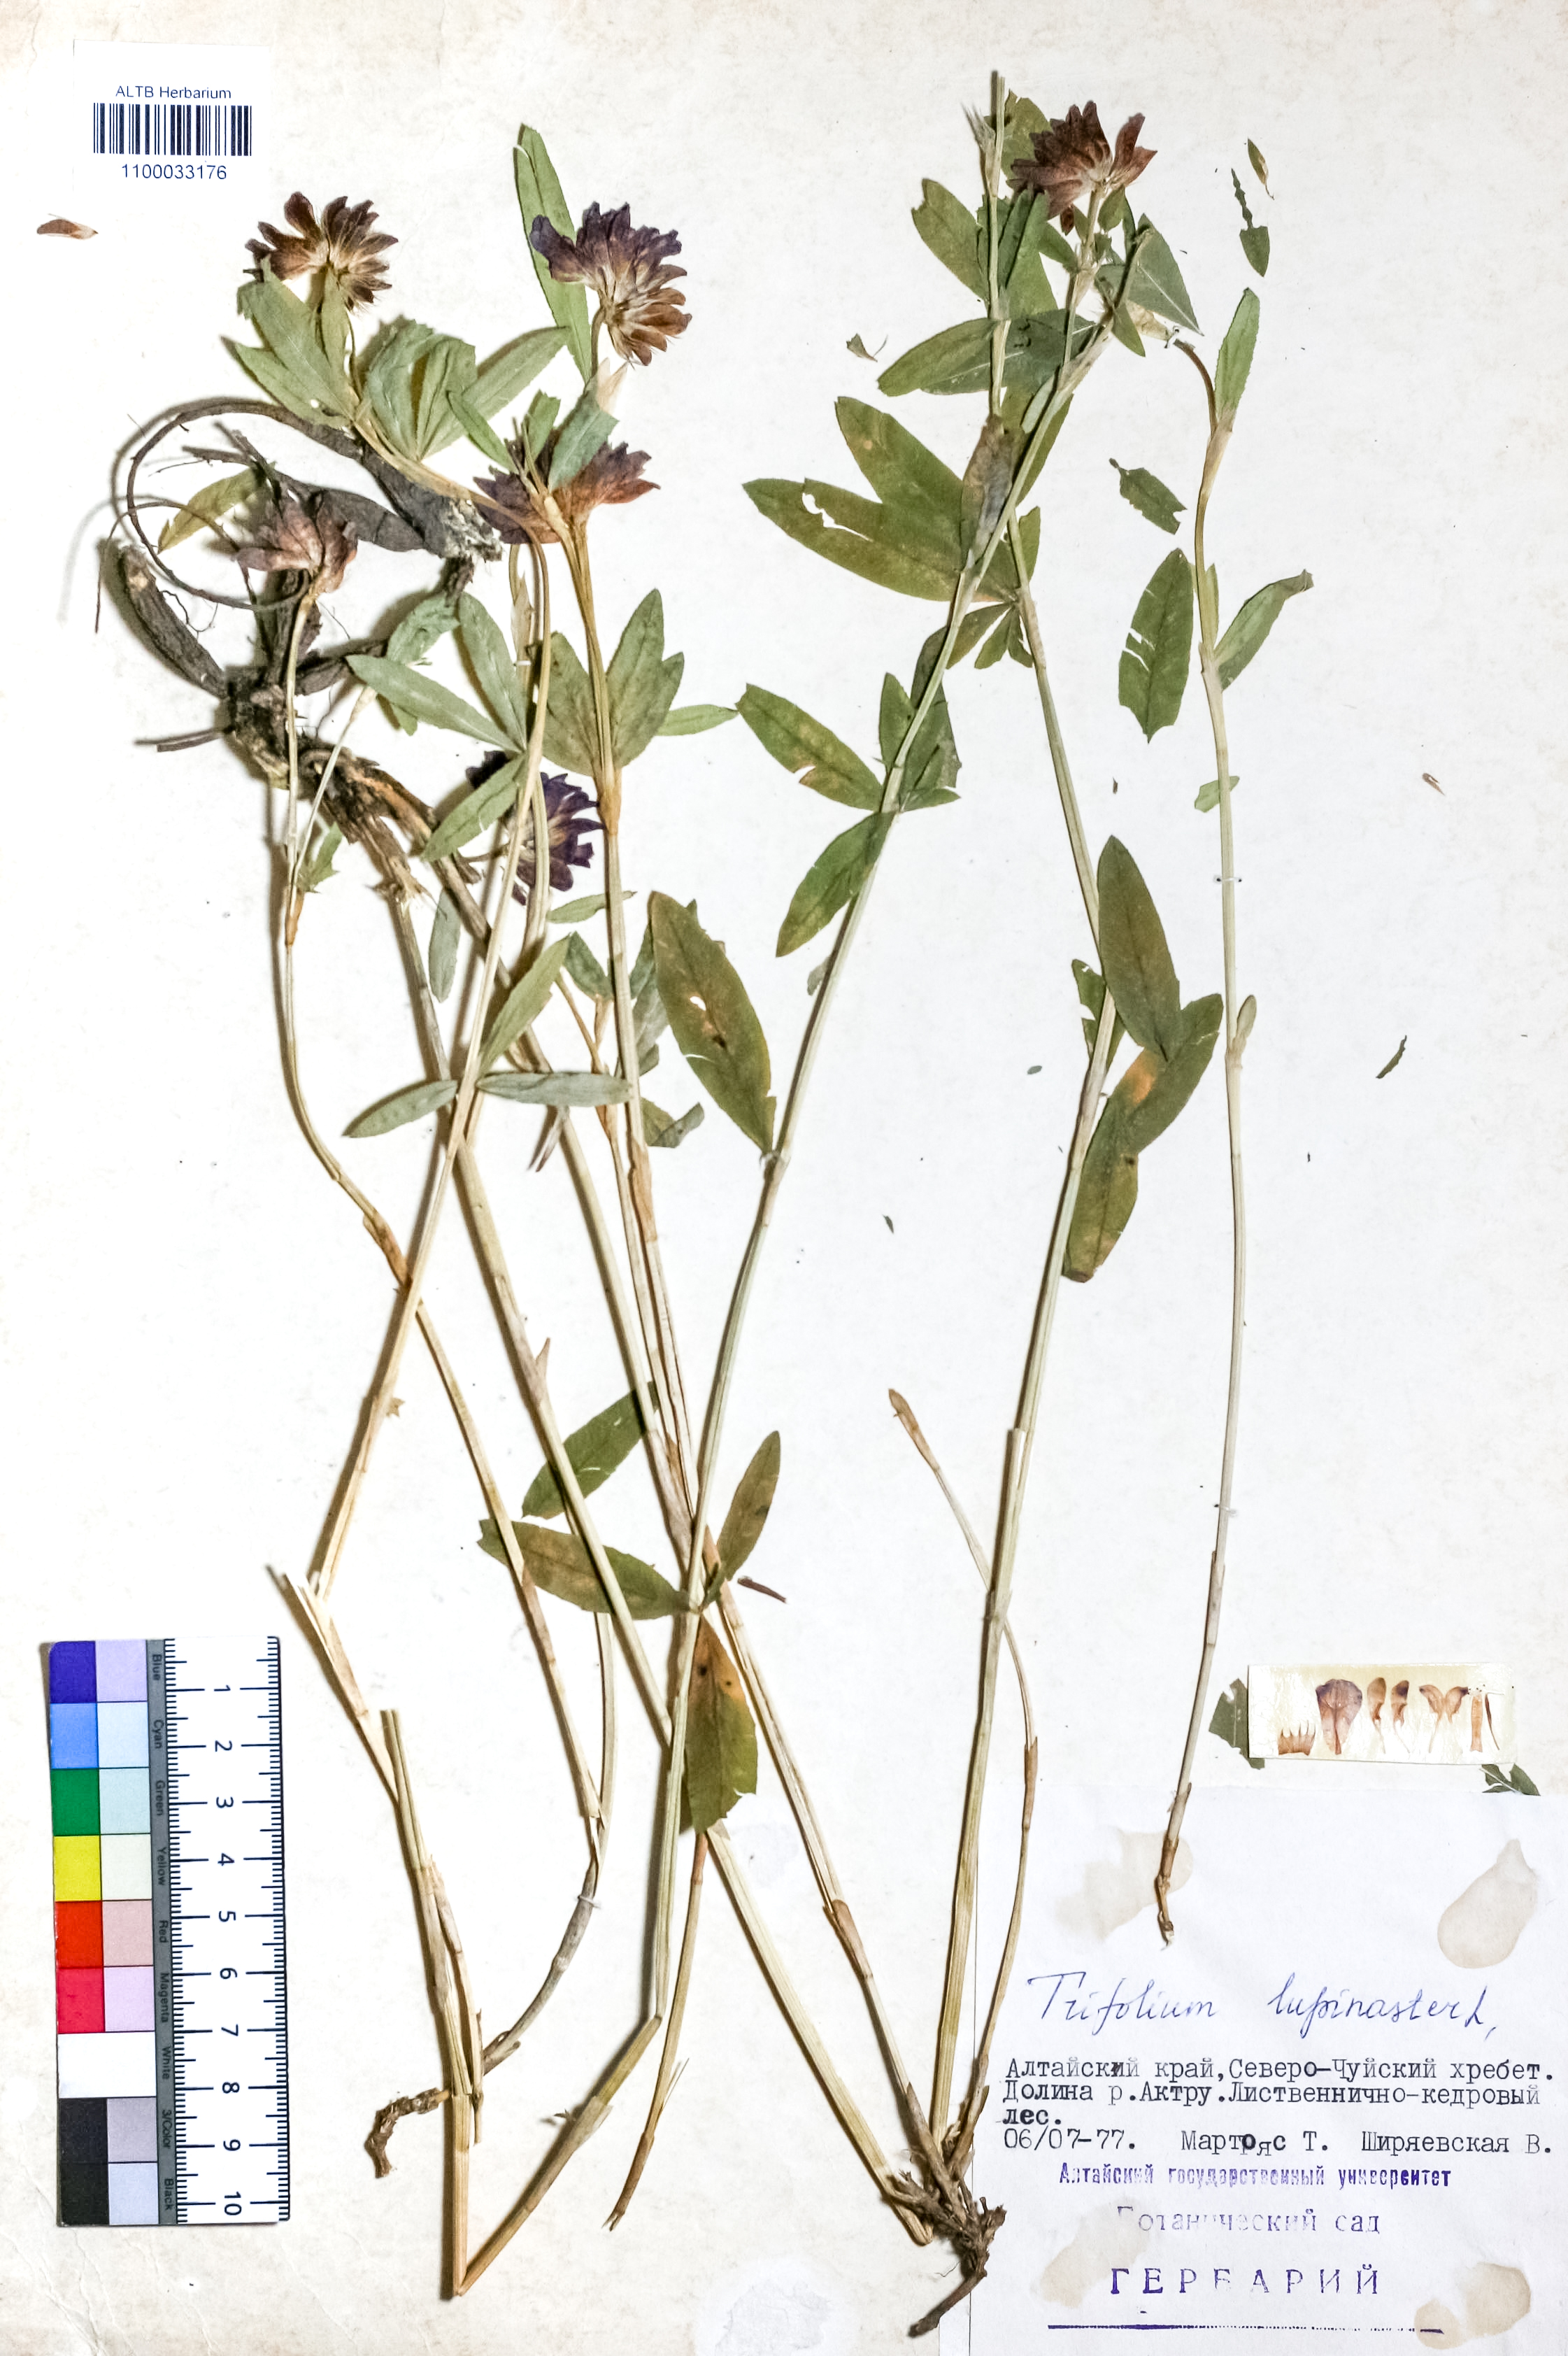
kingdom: Plantae
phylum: Tracheophyta
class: Magnoliopsida
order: Fabales
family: Fabaceae
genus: Trifolium
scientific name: Trifolium lupinaster
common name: Lupine clover
